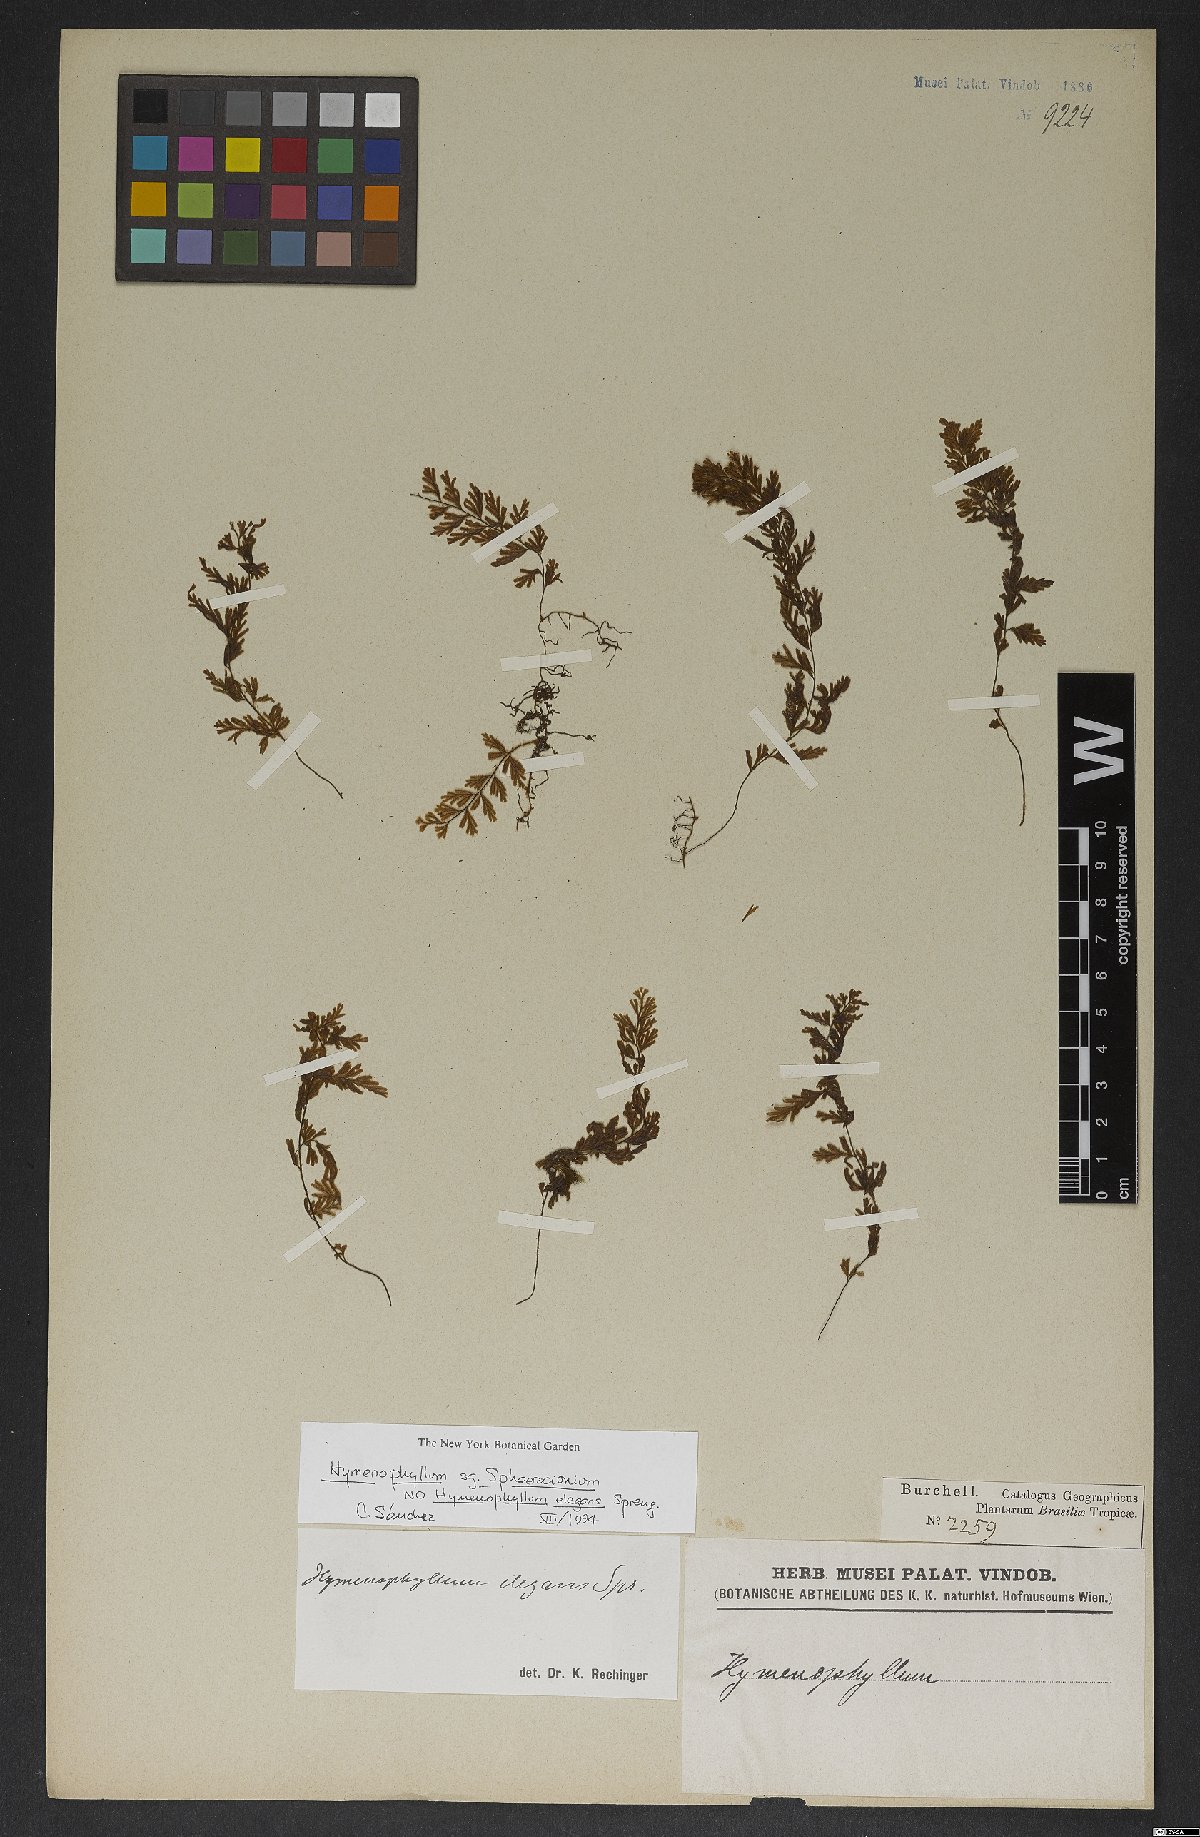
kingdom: Plantae
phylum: Tracheophyta
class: Polypodiopsida
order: Hymenophyllales
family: Hymenophyllaceae
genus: Hymenophyllum
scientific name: Hymenophyllum
